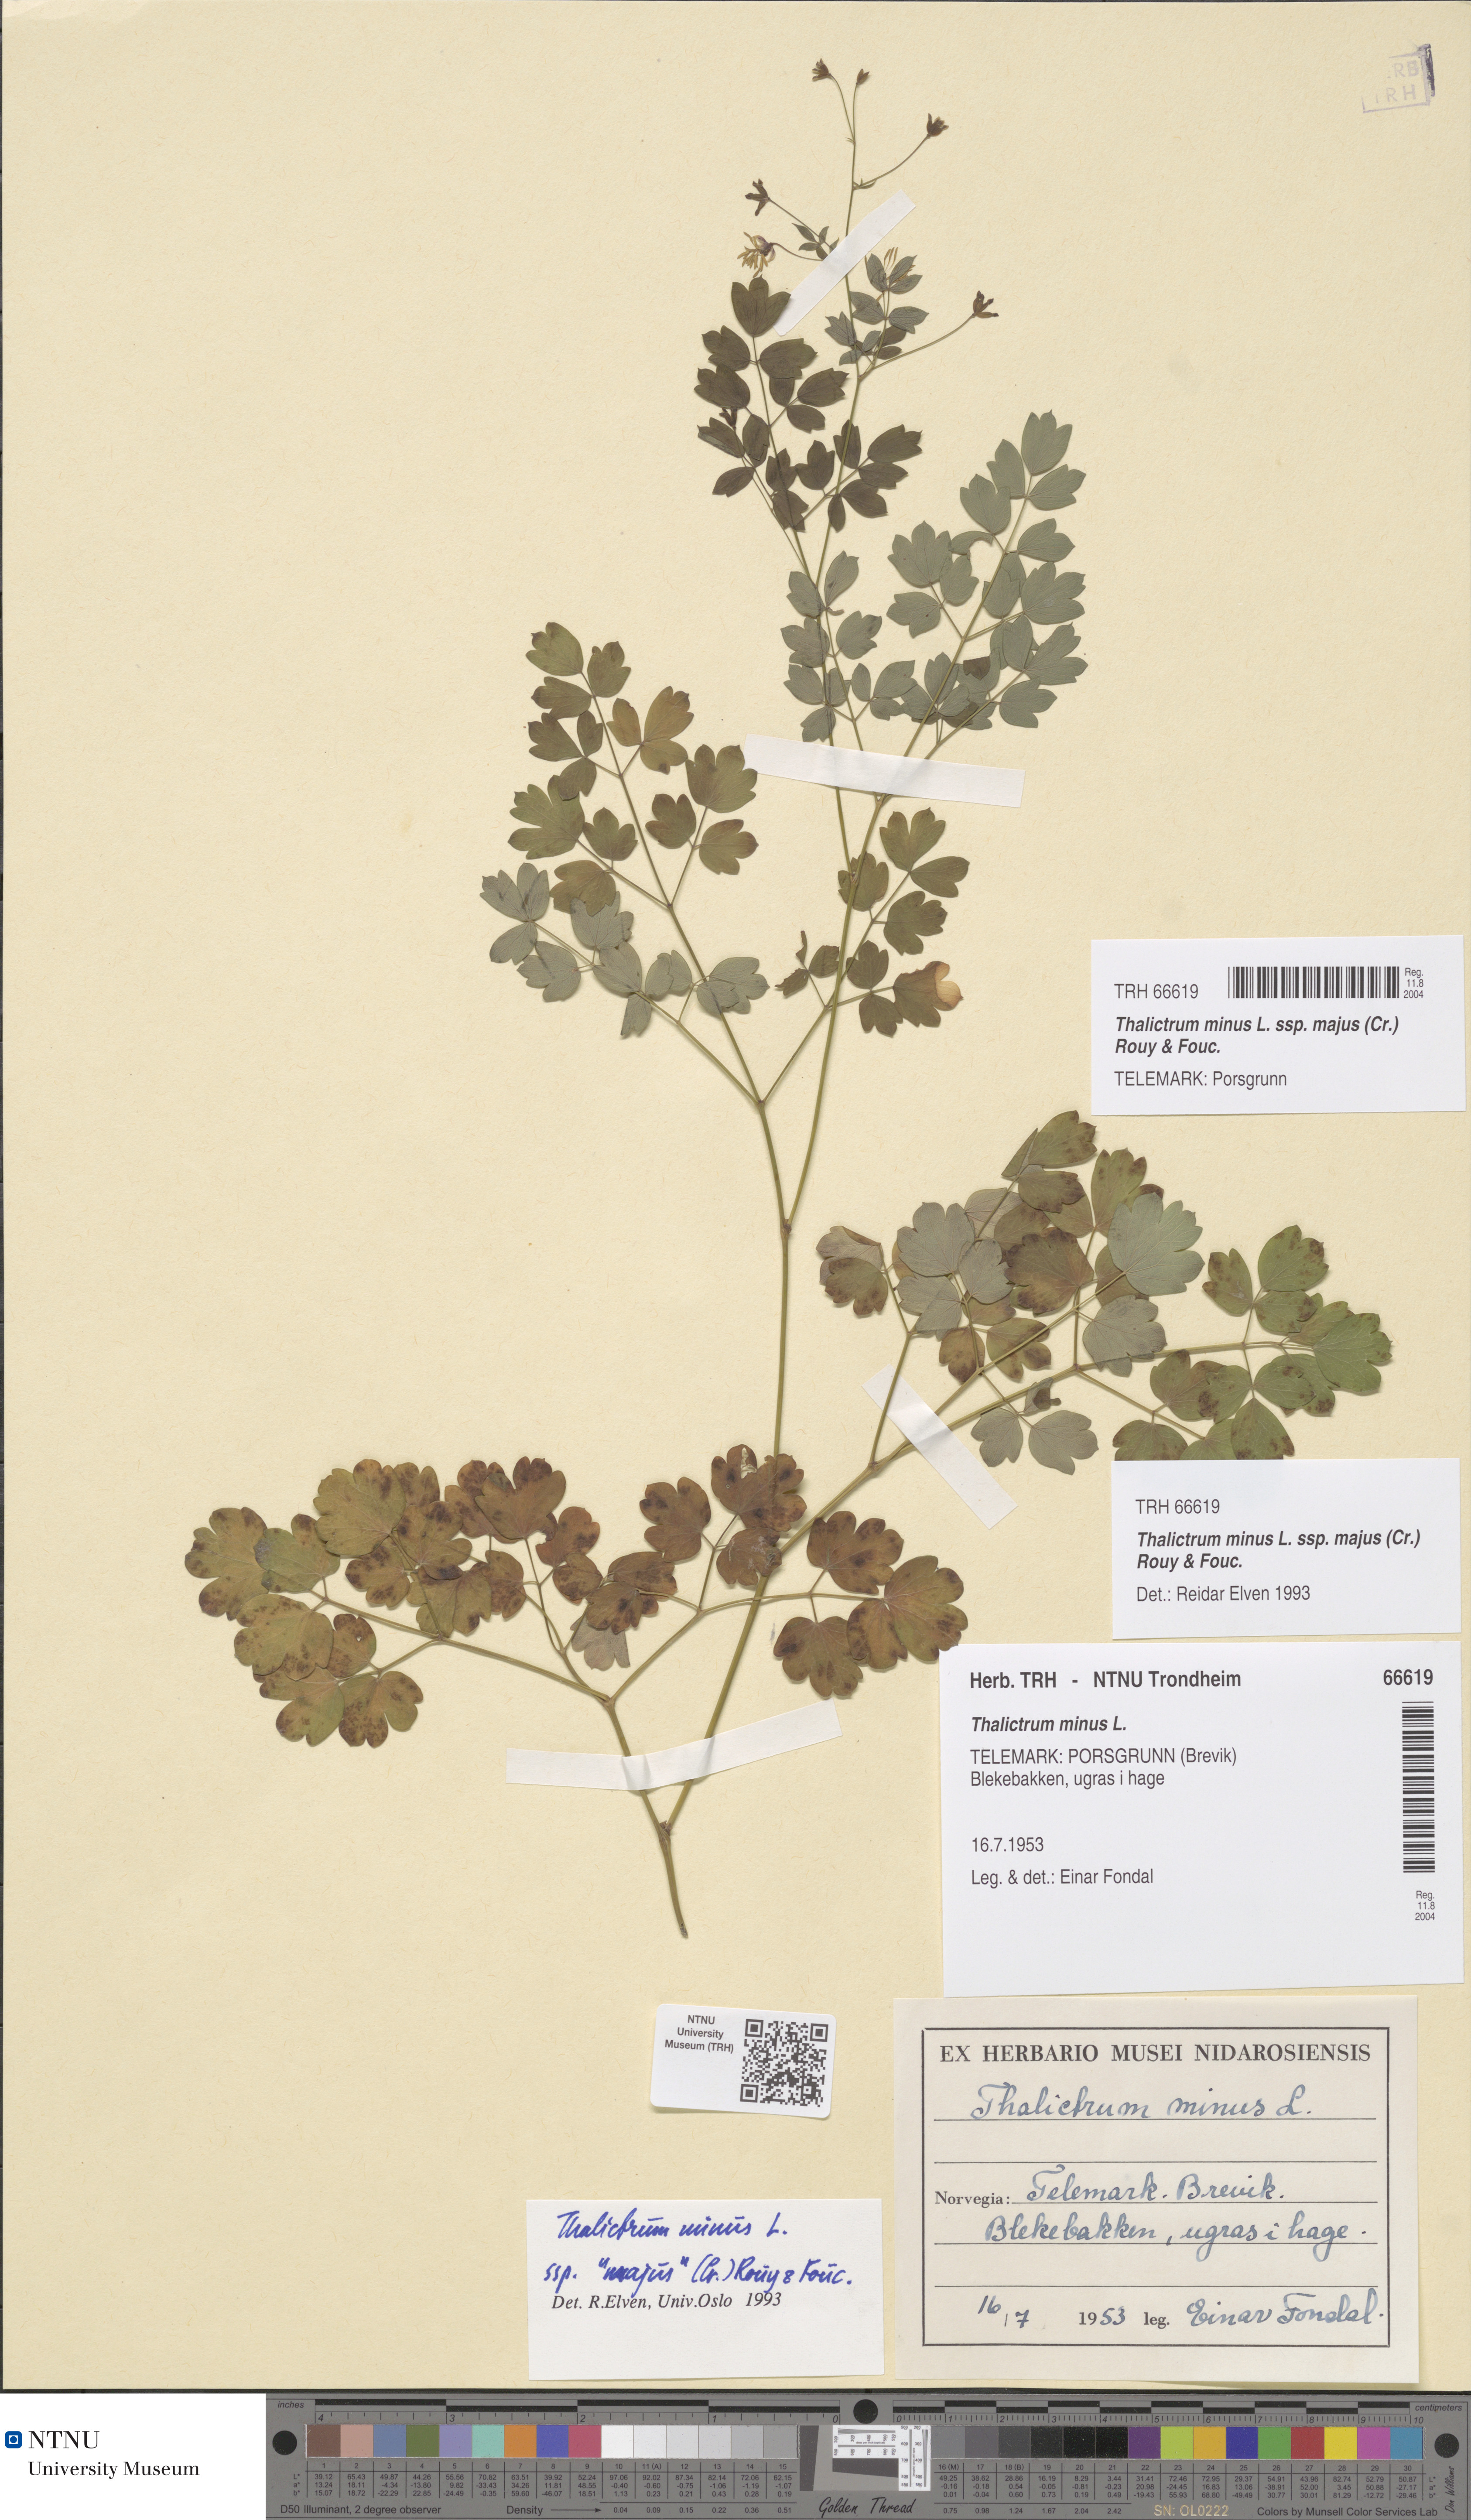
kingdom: Plantae
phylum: Tracheophyta
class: Magnoliopsida
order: Ranunculales
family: Ranunculaceae
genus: Thalictrum
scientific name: Thalictrum minus
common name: Lesser meadow-rue
